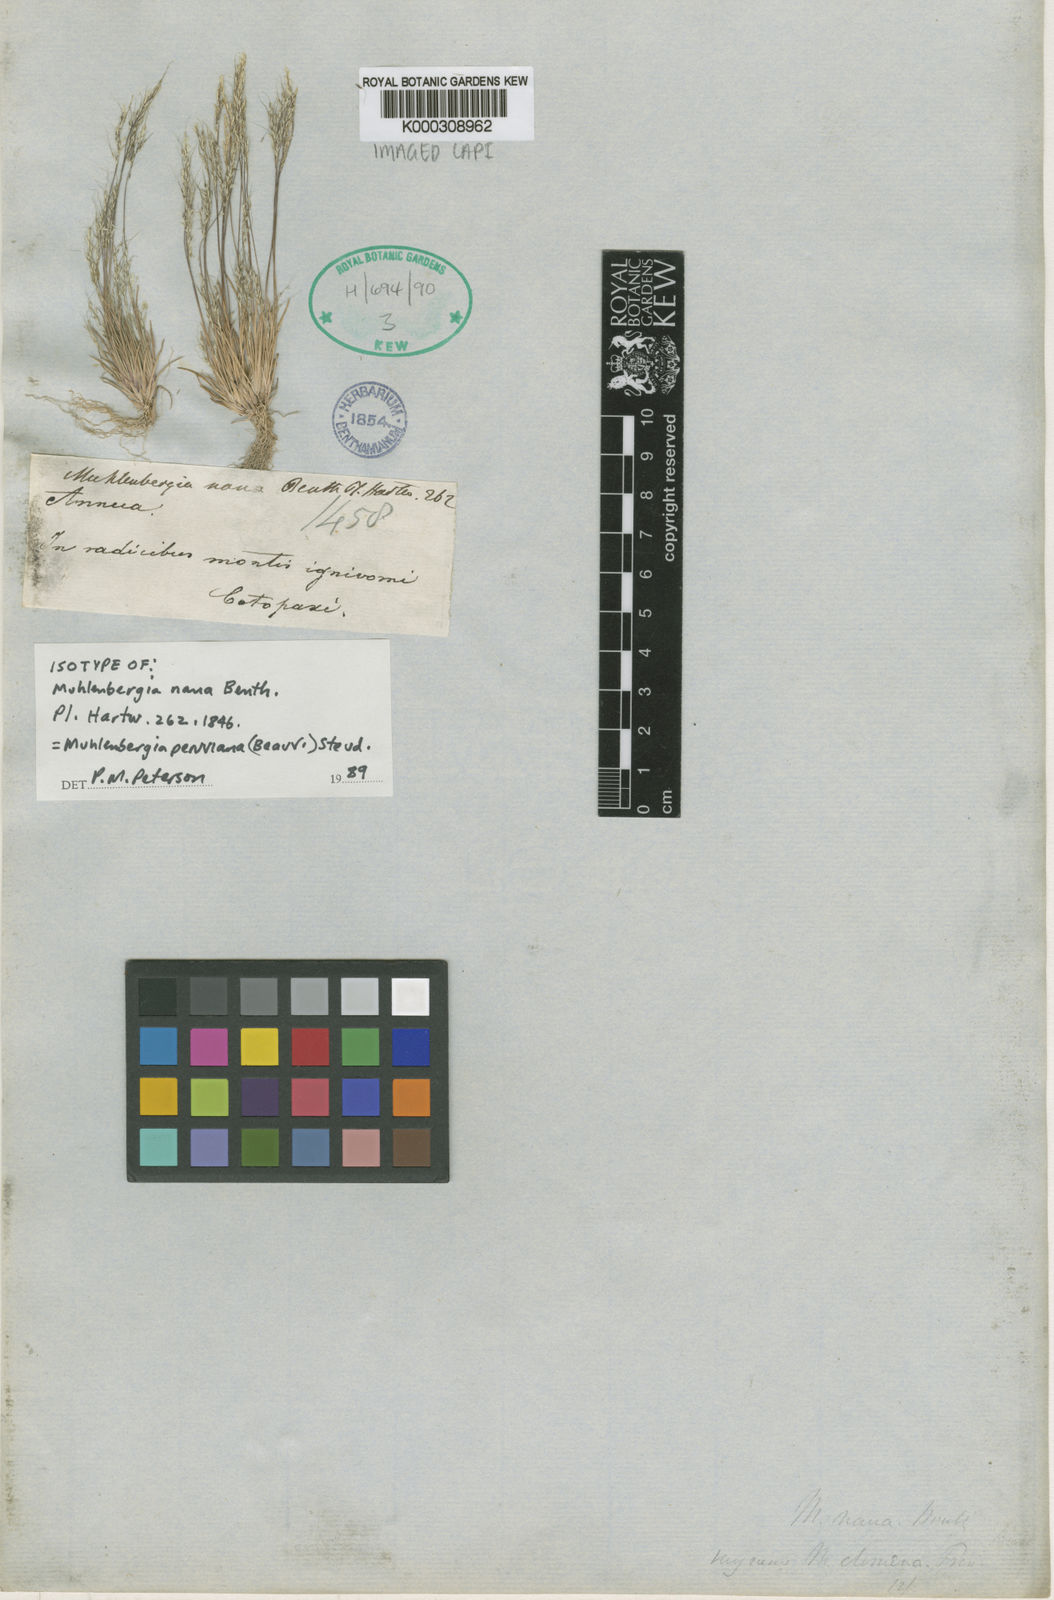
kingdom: Plantae
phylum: Tracheophyta
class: Liliopsida
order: Poales
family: Poaceae
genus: Muhlenbergia
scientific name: Muhlenbergia peruviana
